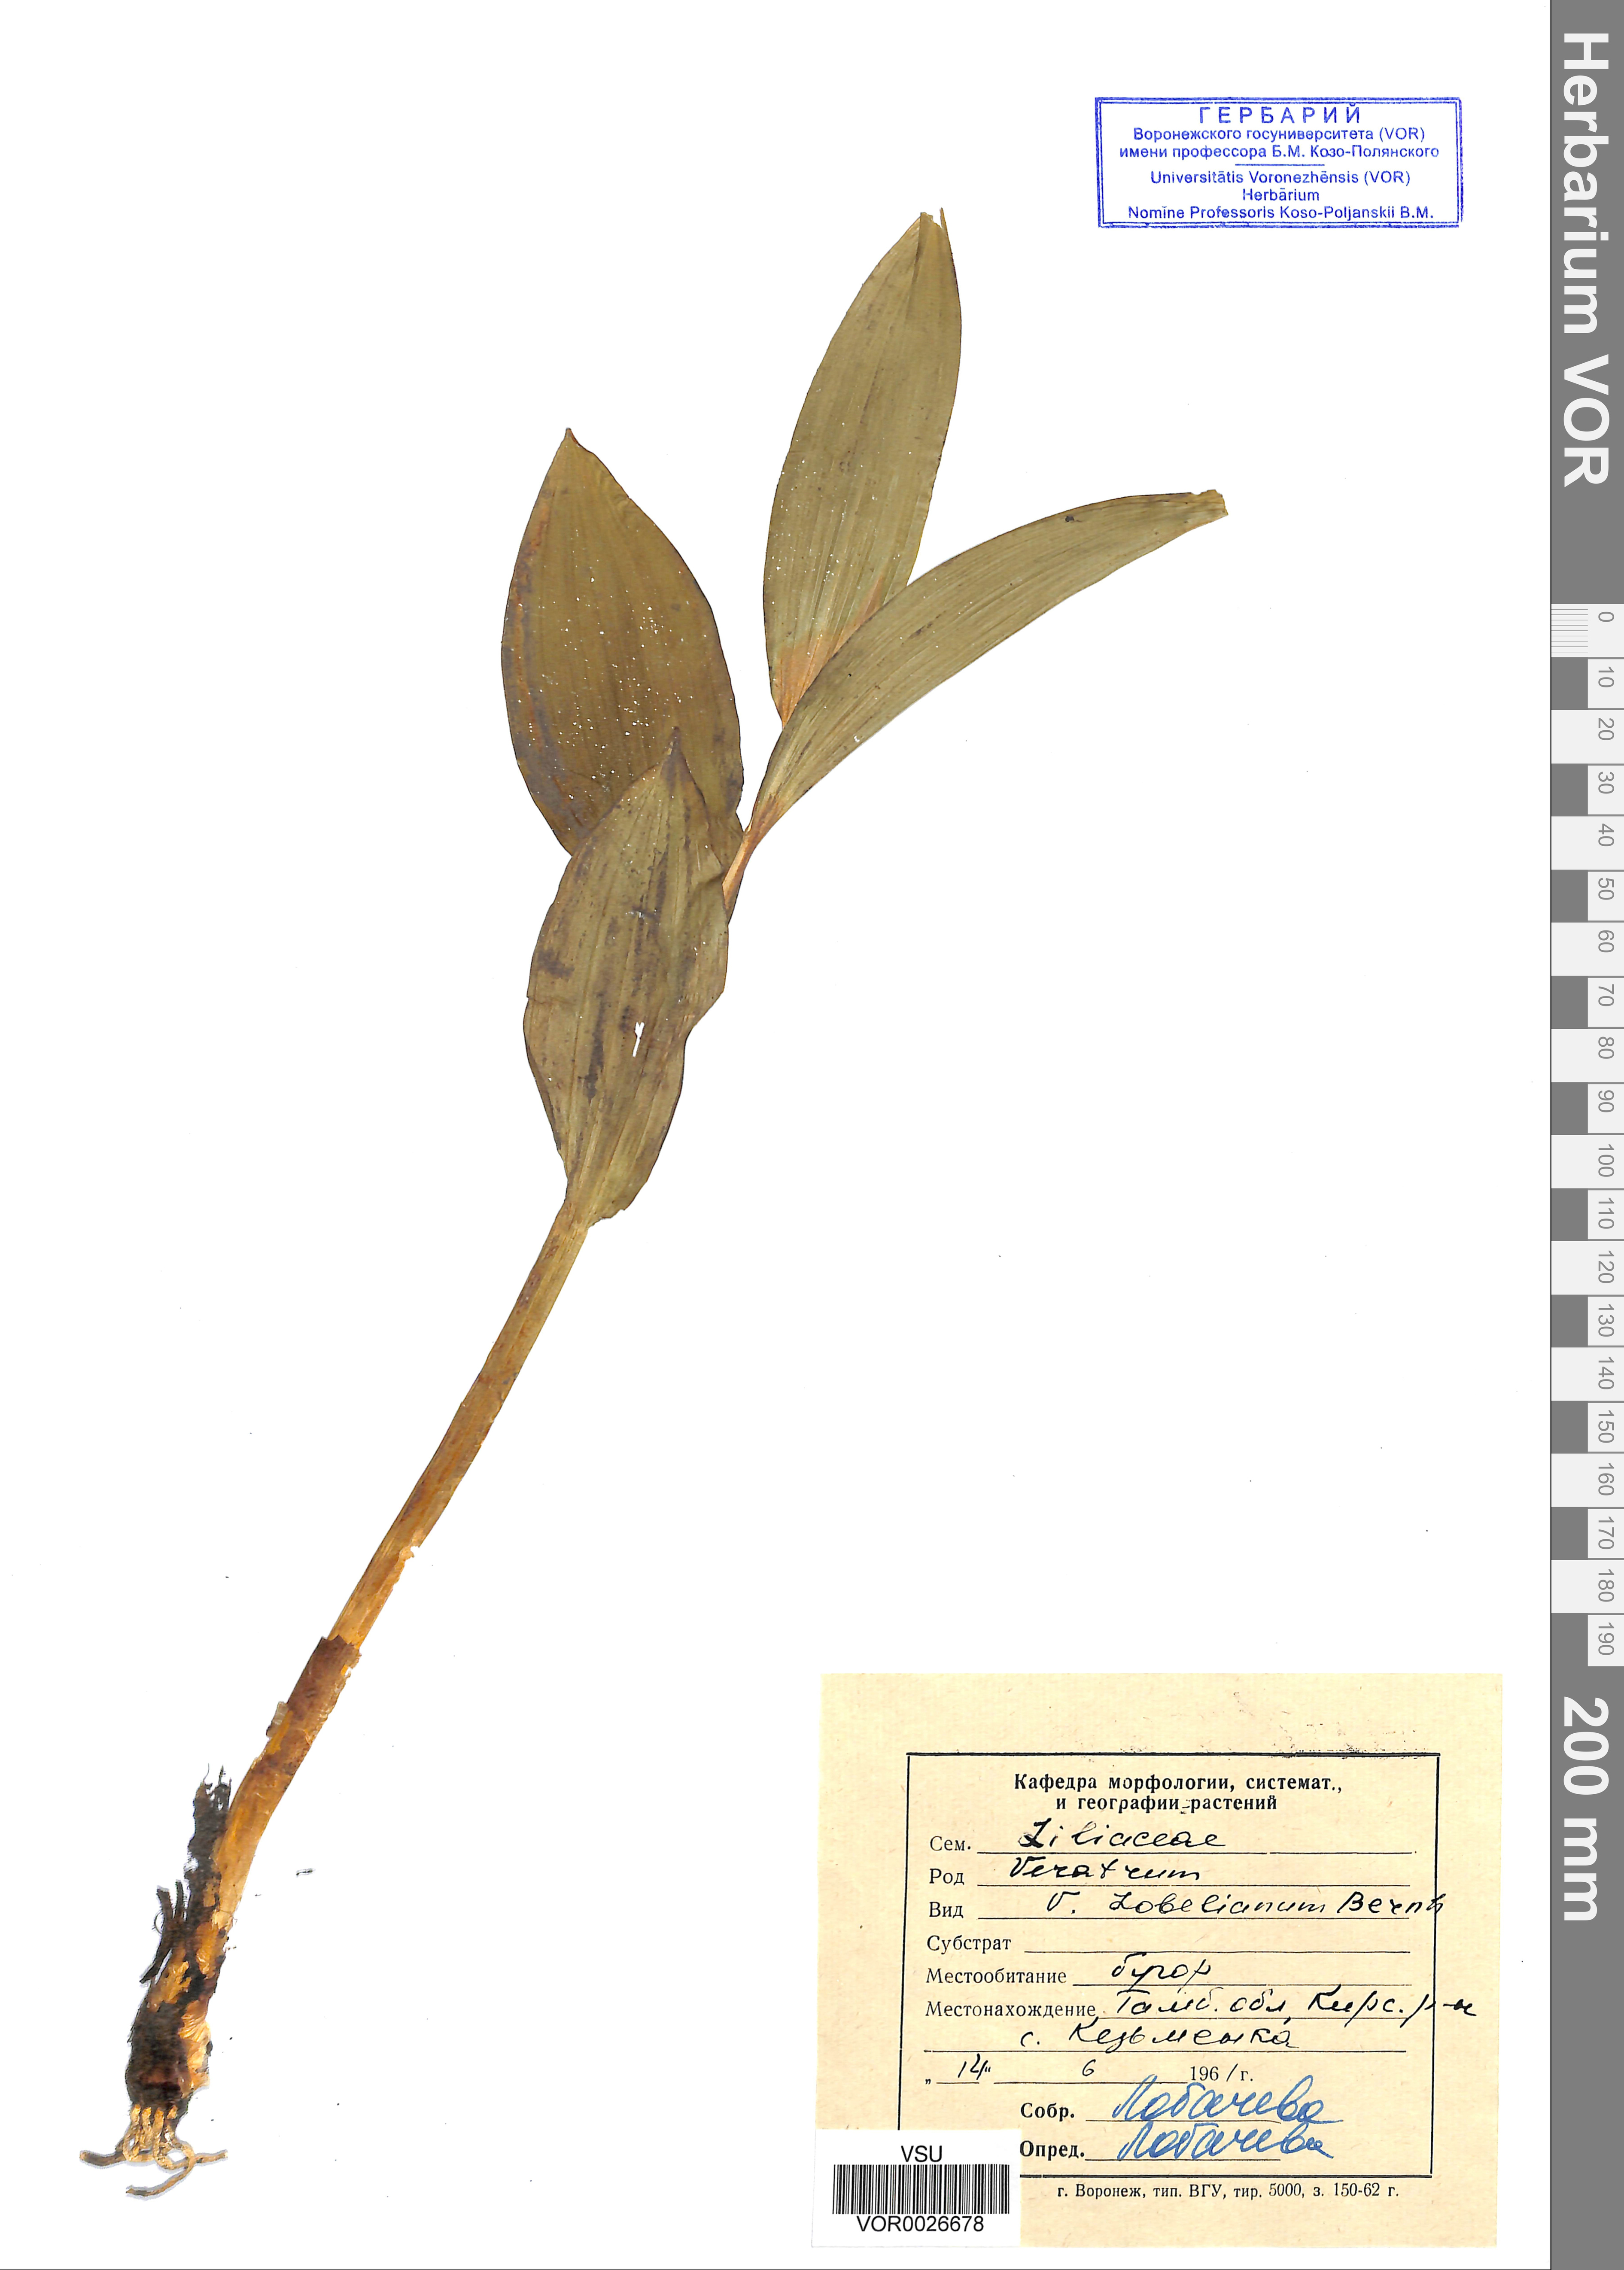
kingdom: Plantae
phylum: Tracheophyta
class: Liliopsida
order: Liliales
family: Melanthiaceae
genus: Veratrum
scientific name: Veratrum lobelianum
